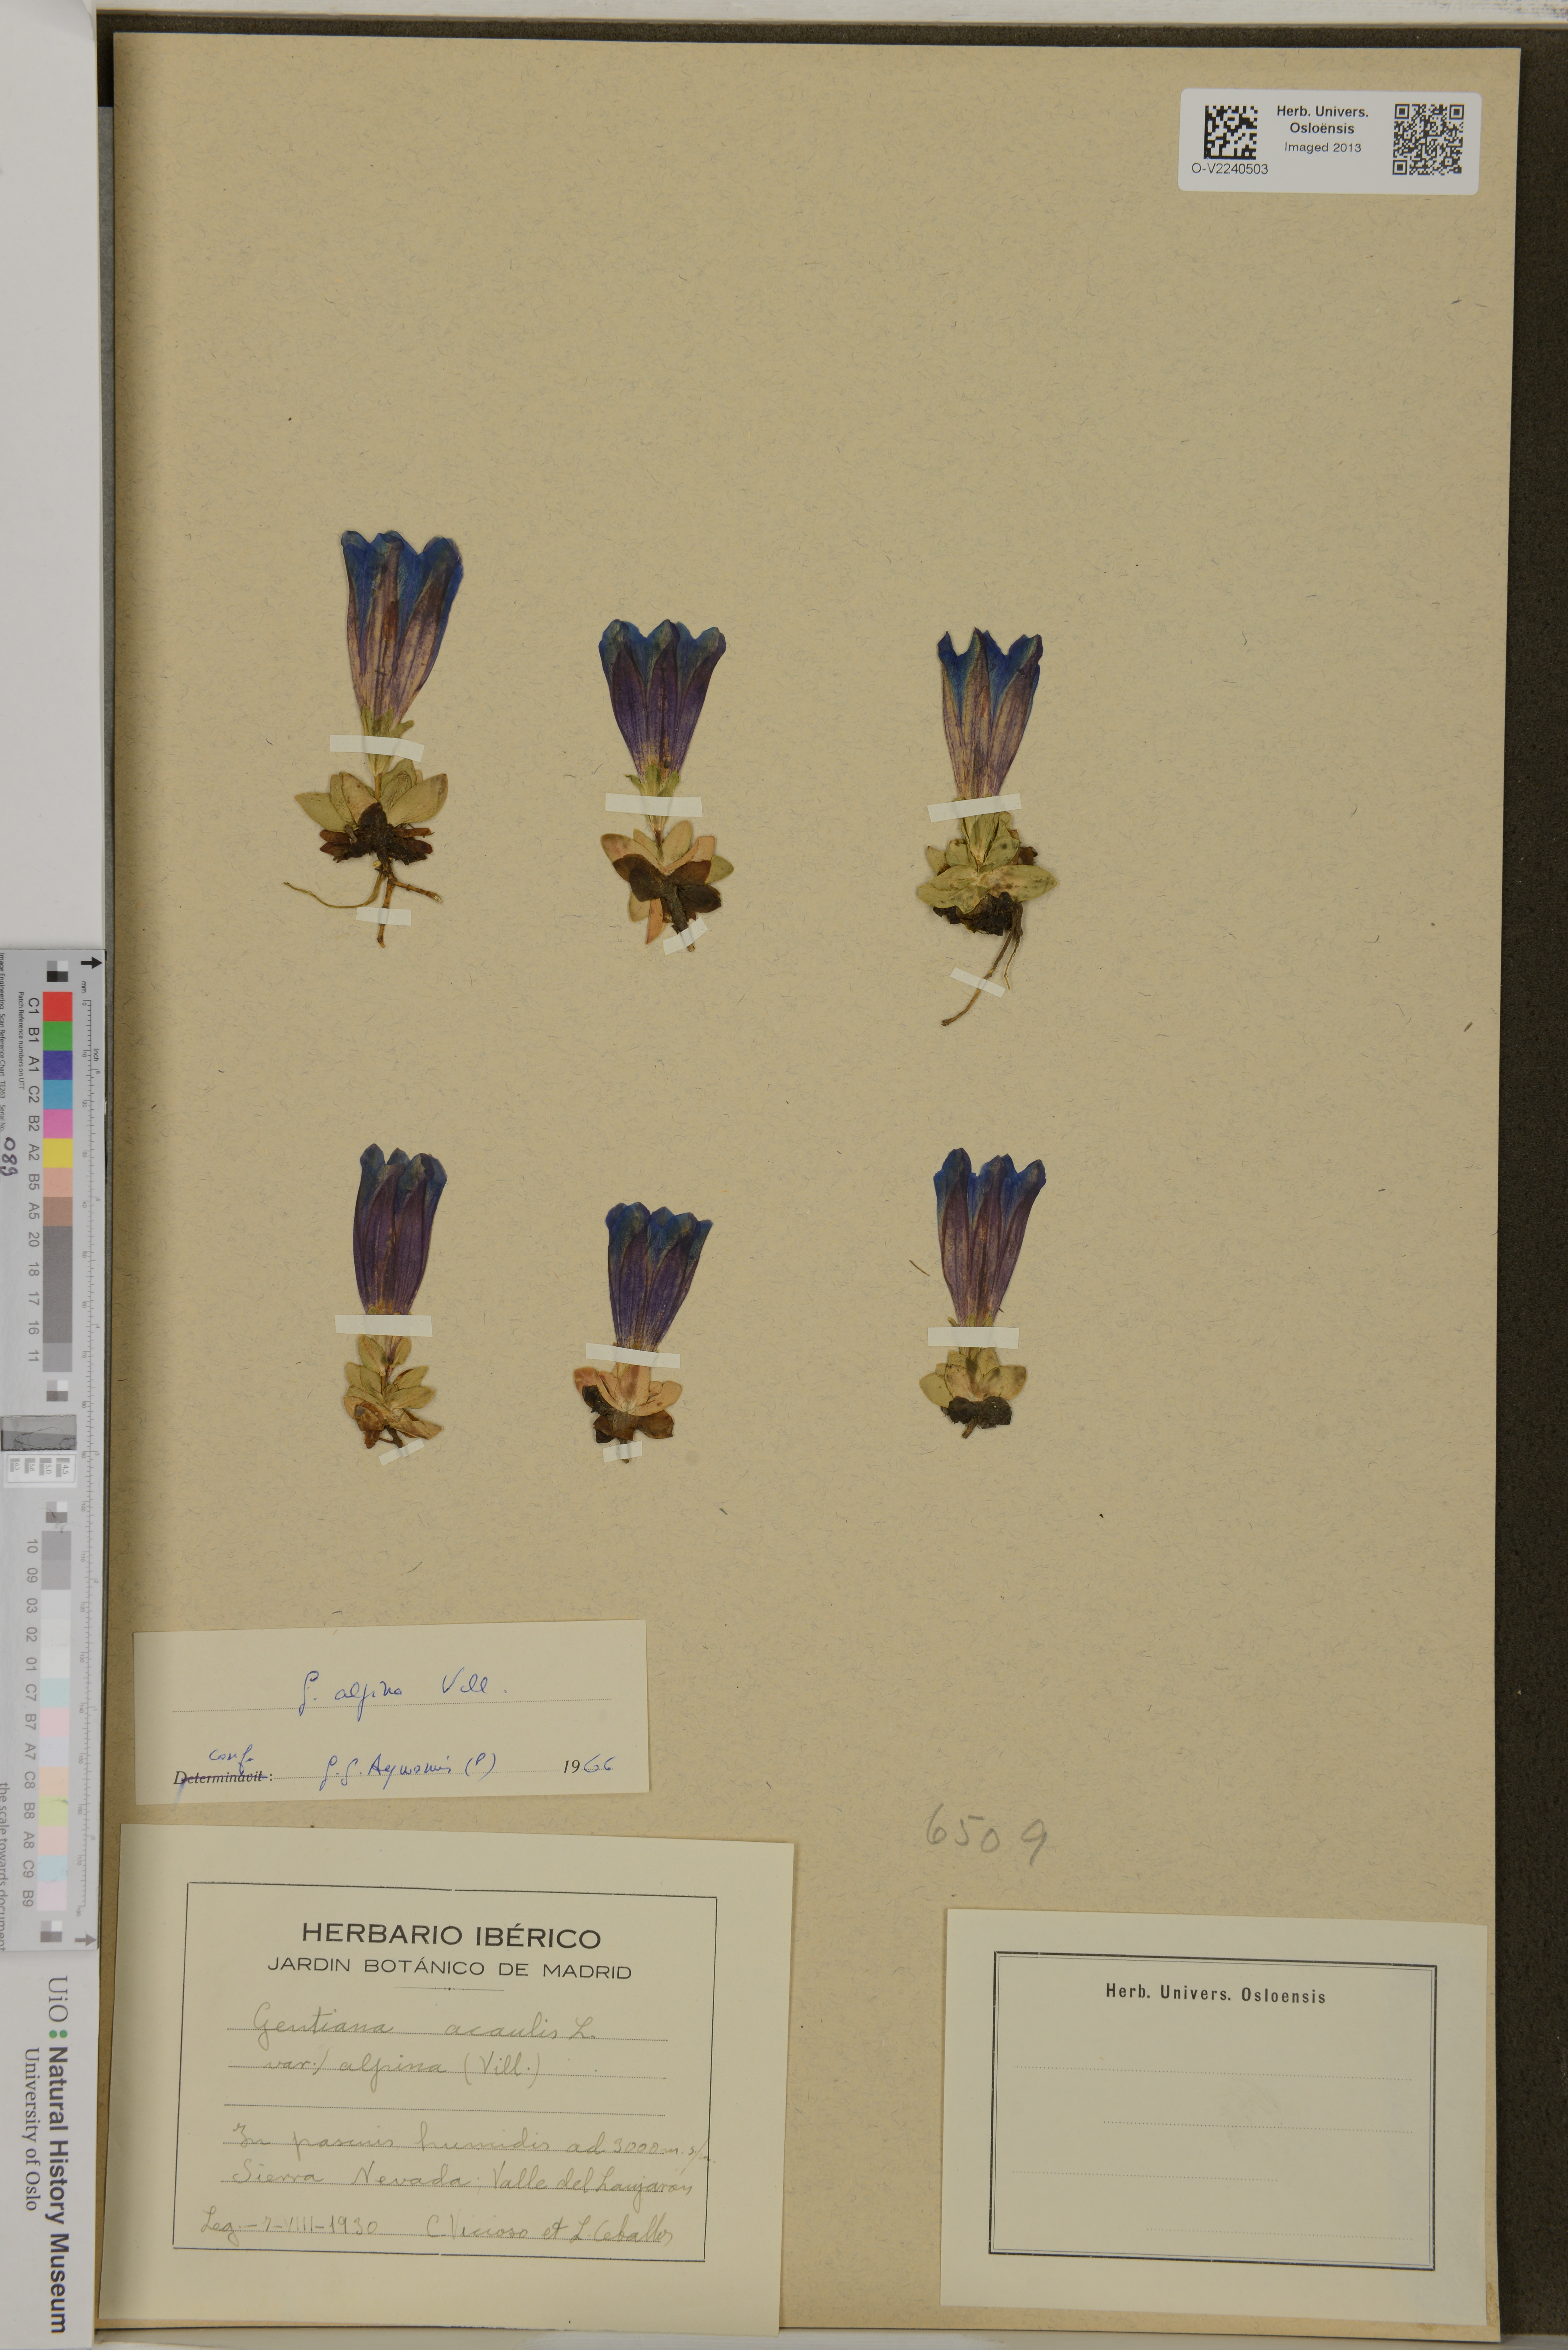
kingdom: Plantae
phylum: Tracheophyta
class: Magnoliopsida
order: Gentianales
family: Gentianaceae
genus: Gentiana
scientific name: Gentiana alpina
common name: Southern gentian
